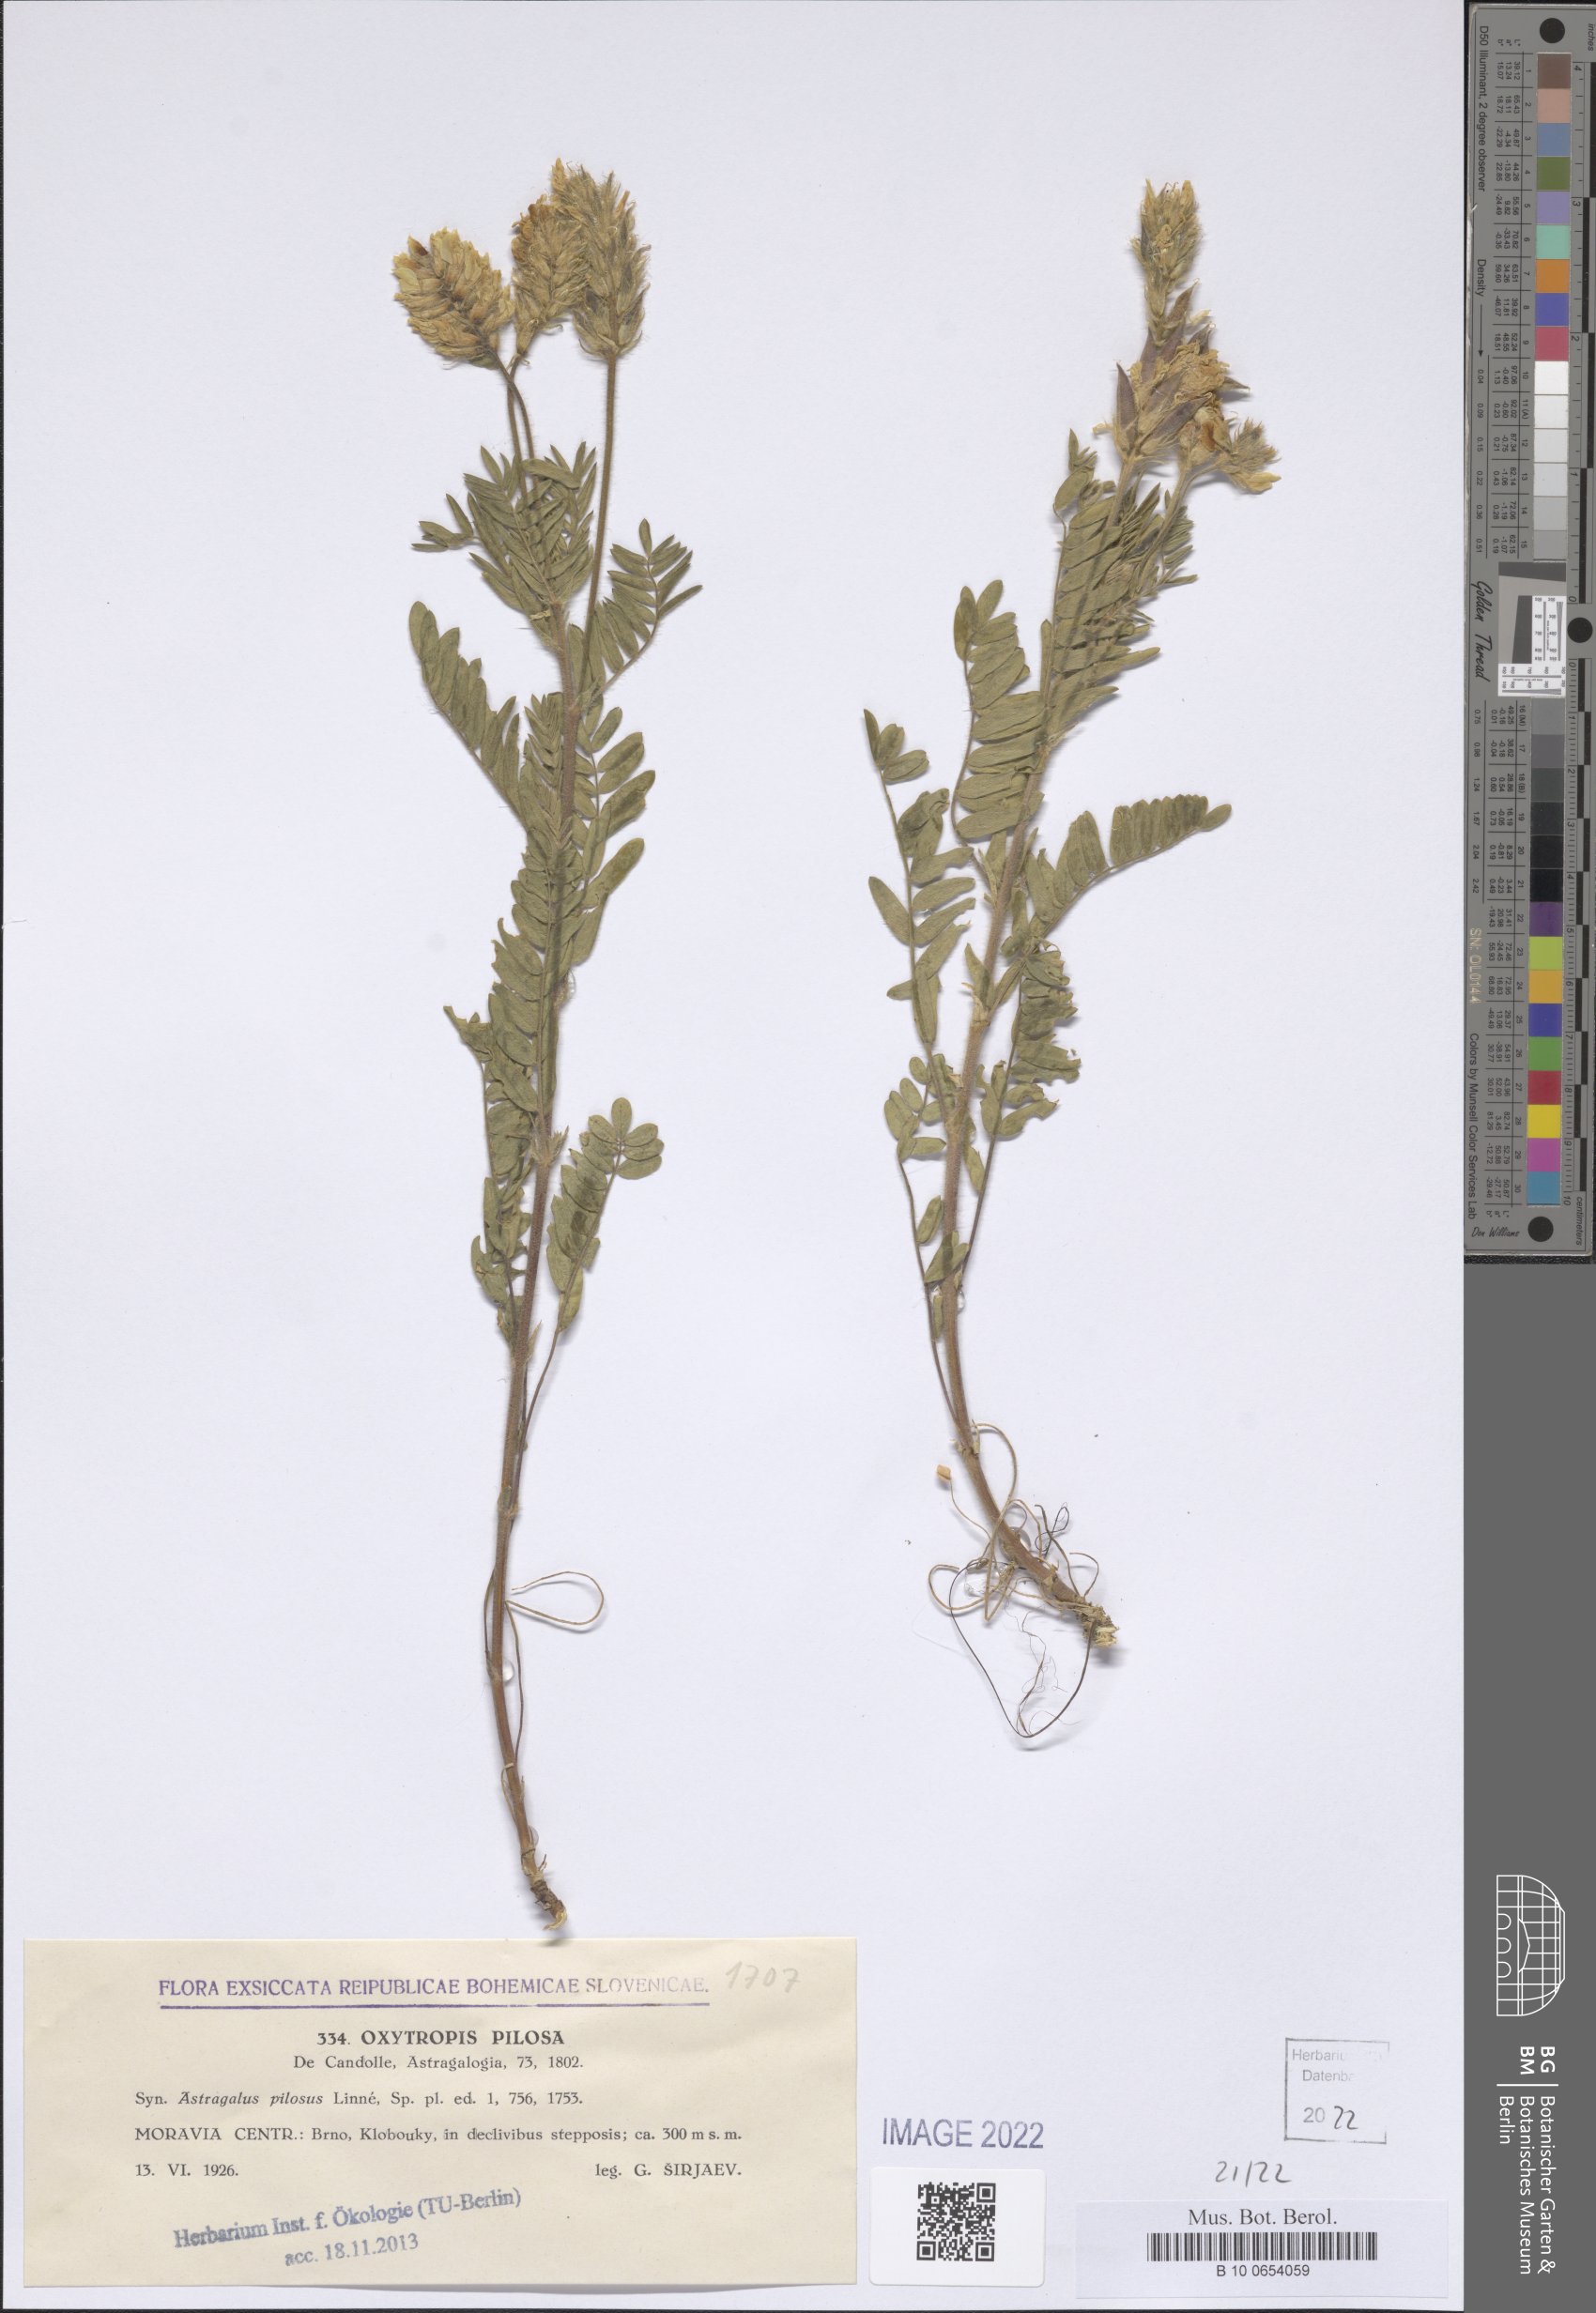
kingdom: Plantae
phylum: Tracheophyta
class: Magnoliopsida
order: Fabales
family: Fabaceae
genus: Oxytropis
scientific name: Oxytropis pilosa
